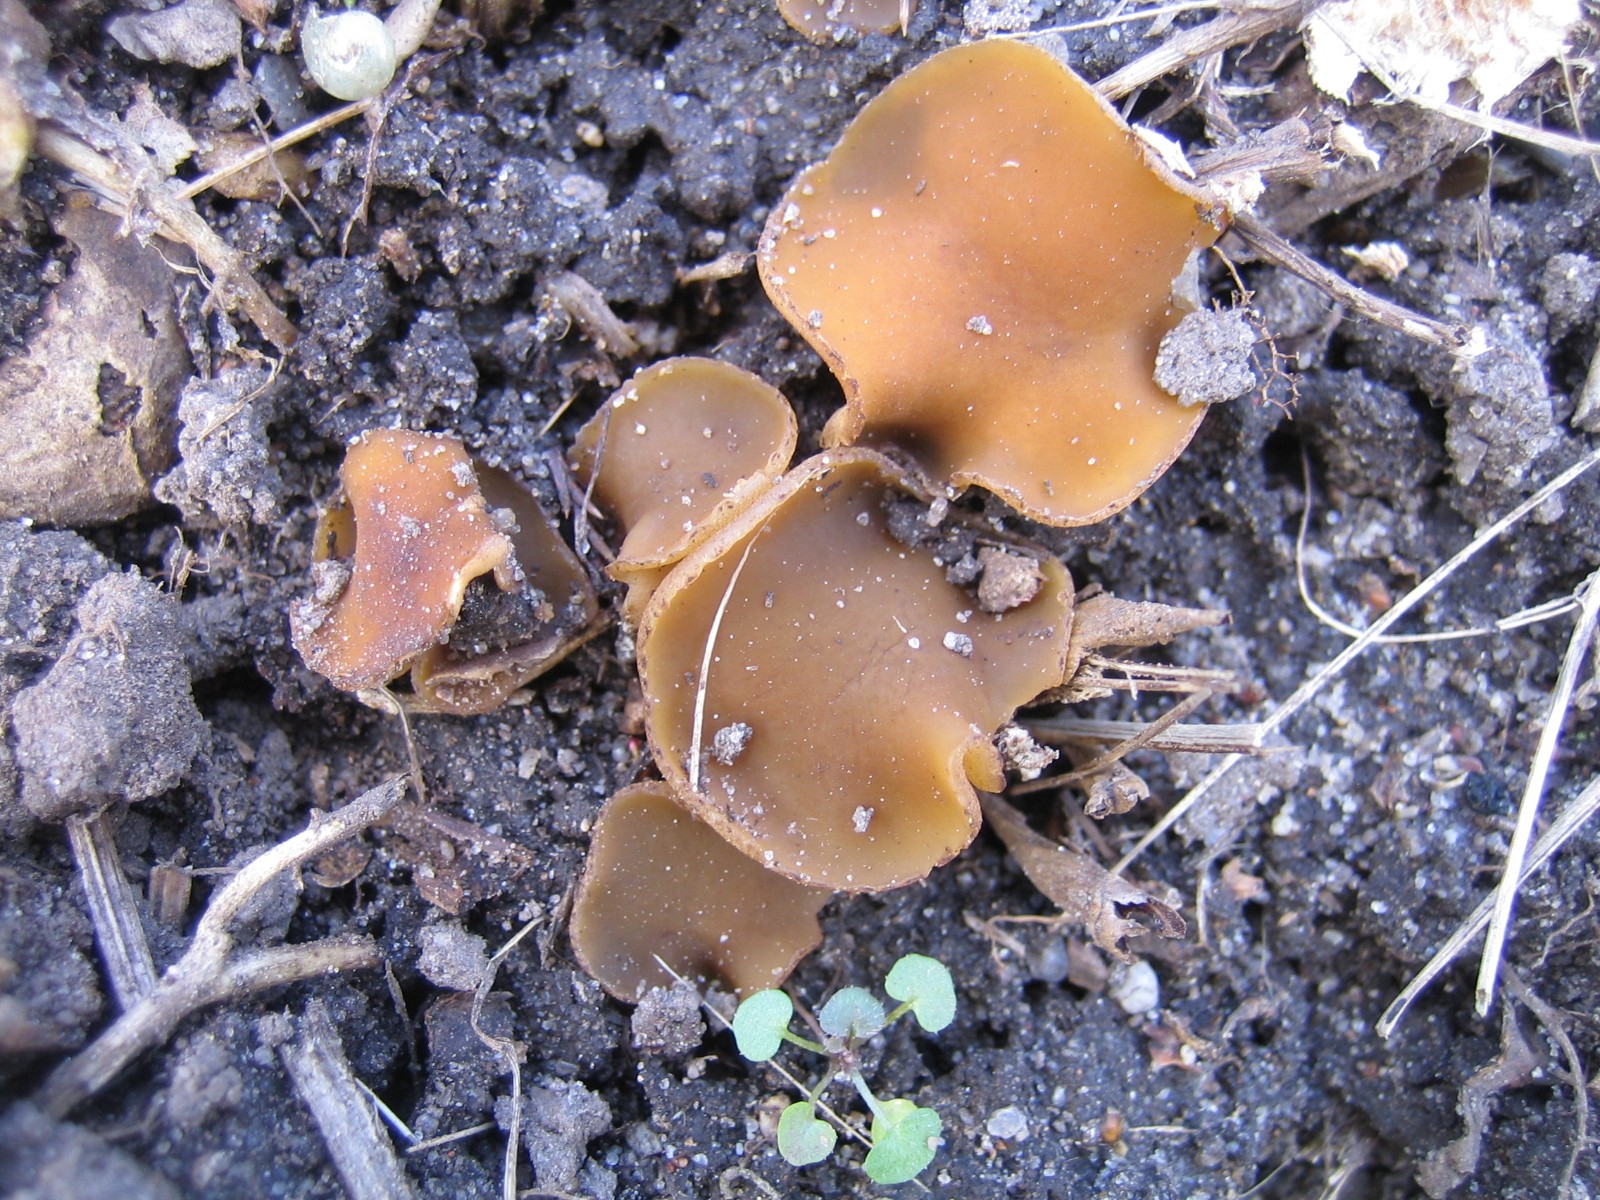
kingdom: Fungi
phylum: Ascomycota
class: Pezizomycetes
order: Pezizales
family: Pezizaceae
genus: Peziza
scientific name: Peziza fimeti
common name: møg-bægersvamp
